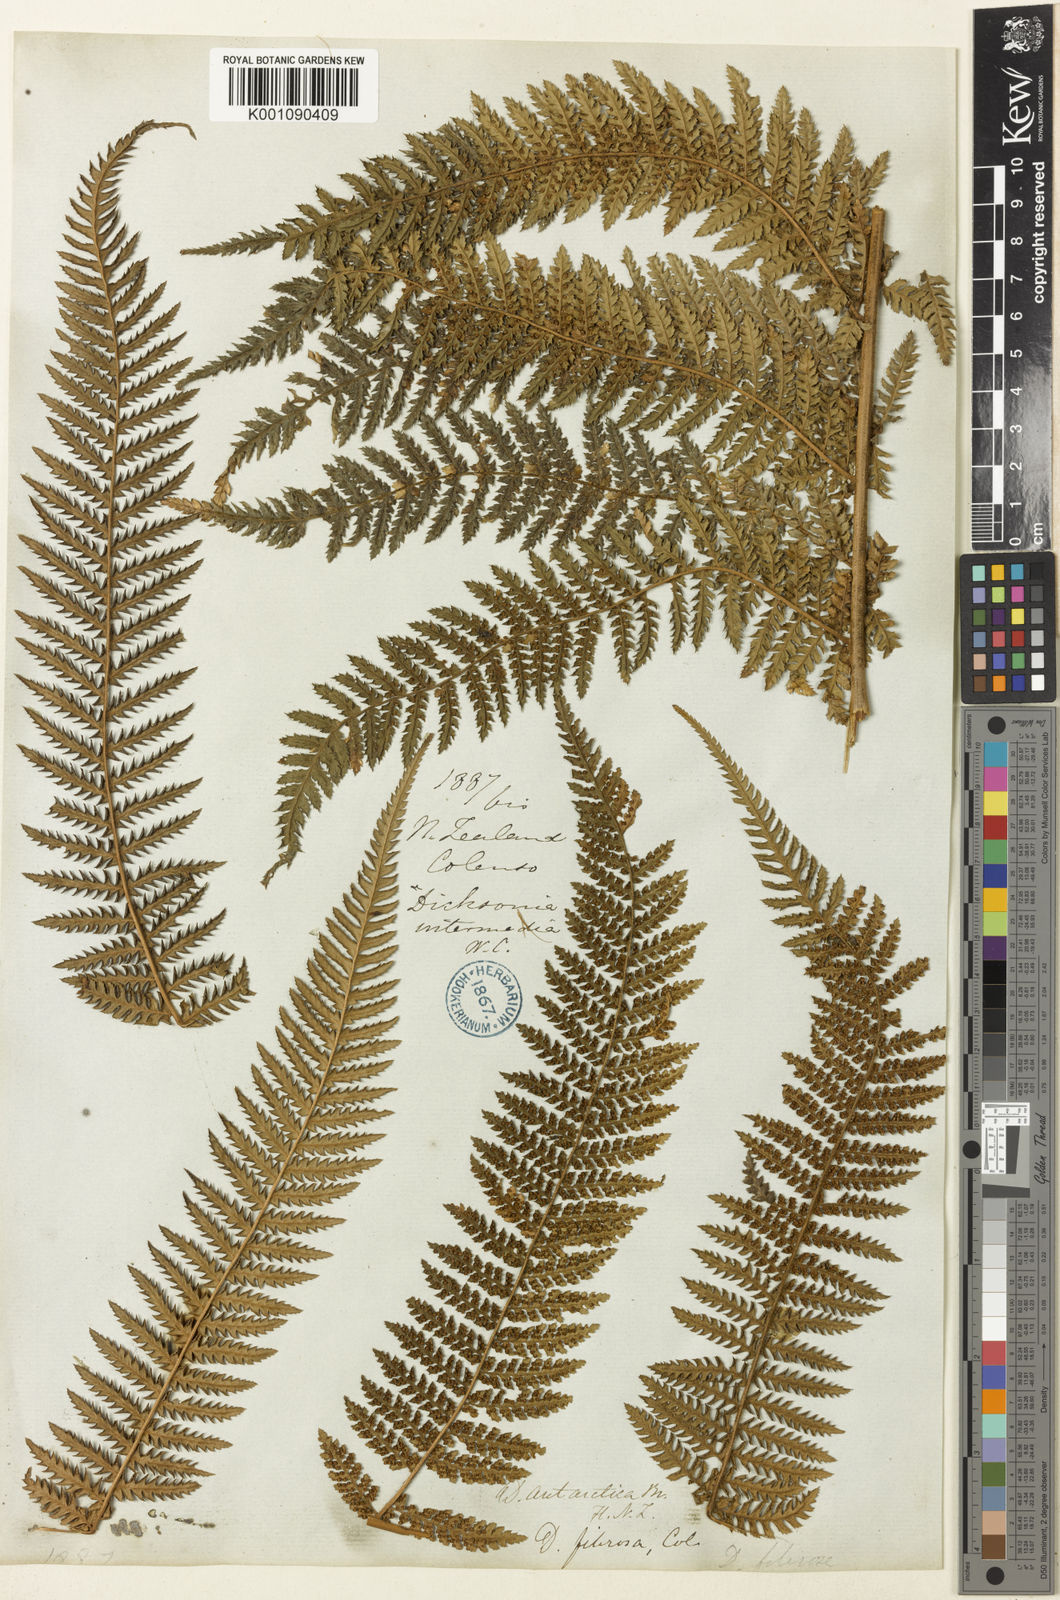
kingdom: Plantae
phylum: Tracheophyta
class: Polypodiopsida
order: Cyatheales
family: Dicksoniaceae
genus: Dicksonia
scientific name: Dicksonia fibrosa
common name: Golden tree fern
